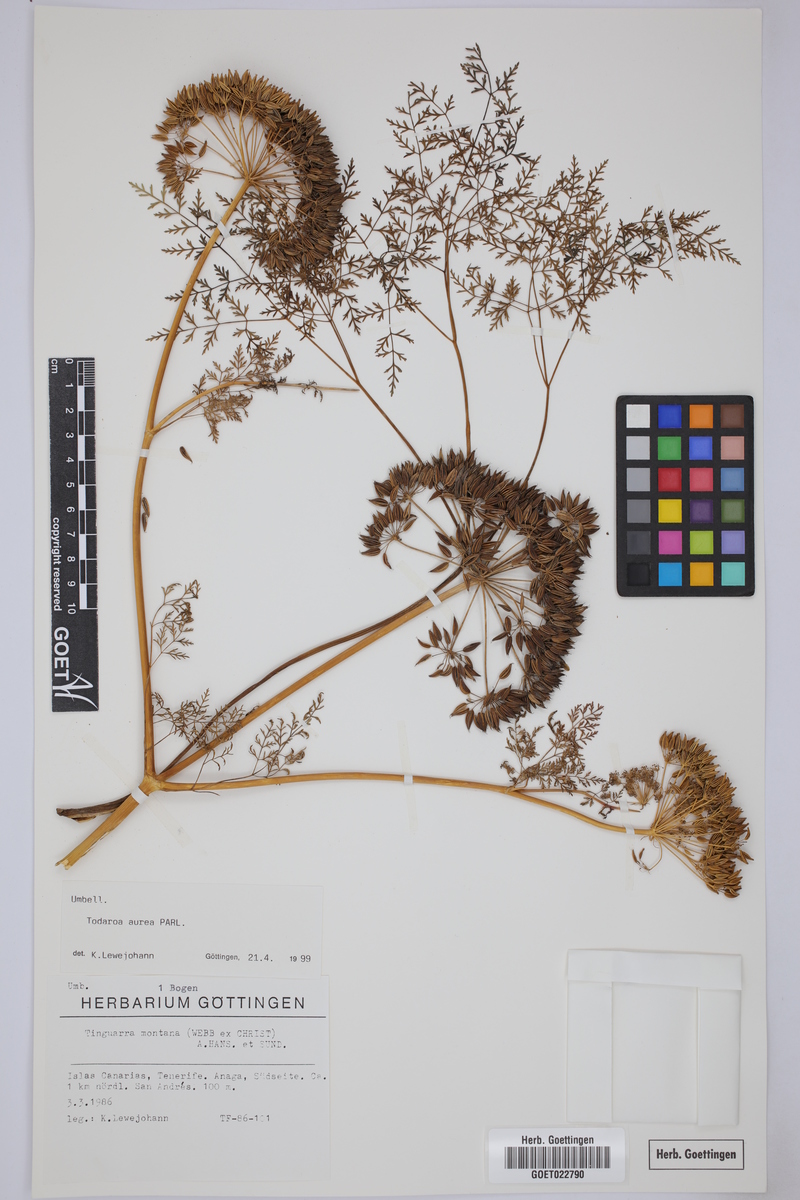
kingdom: Plantae
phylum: Tracheophyta
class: Magnoliopsida
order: Apiales
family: Apiaceae
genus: Todaroa
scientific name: Todaroa aurea
